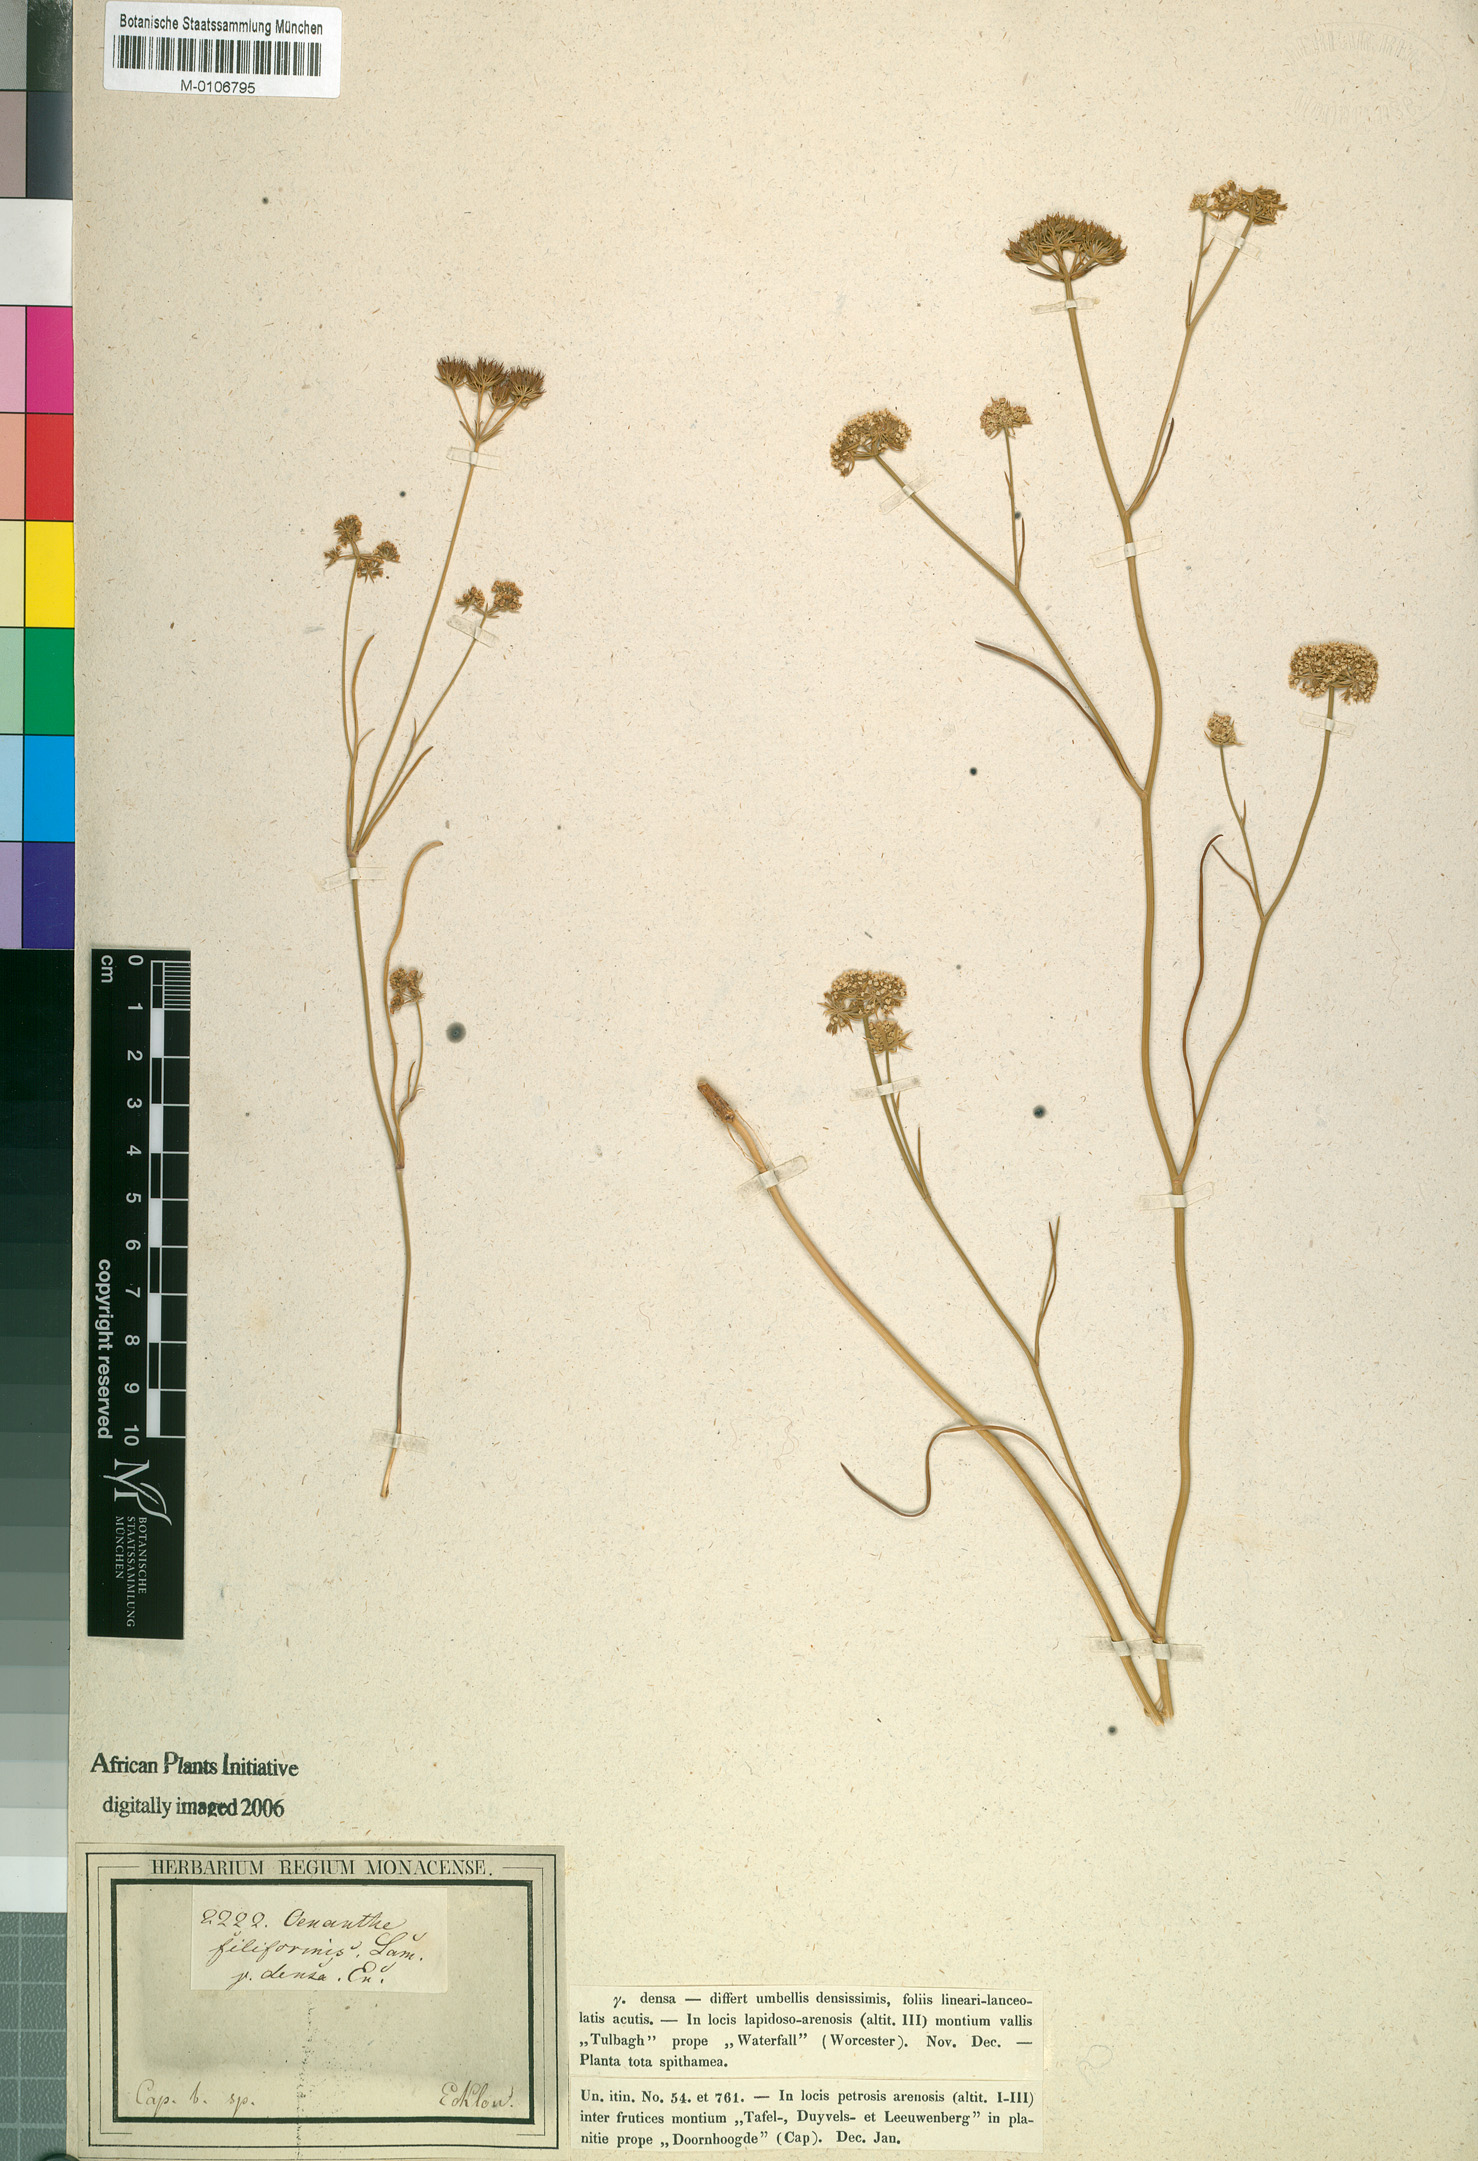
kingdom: Plantae
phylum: Tracheophyta
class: Magnoliopsida
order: Apiales
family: Apiaceae
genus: Itasina
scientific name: Itasina filifolia
